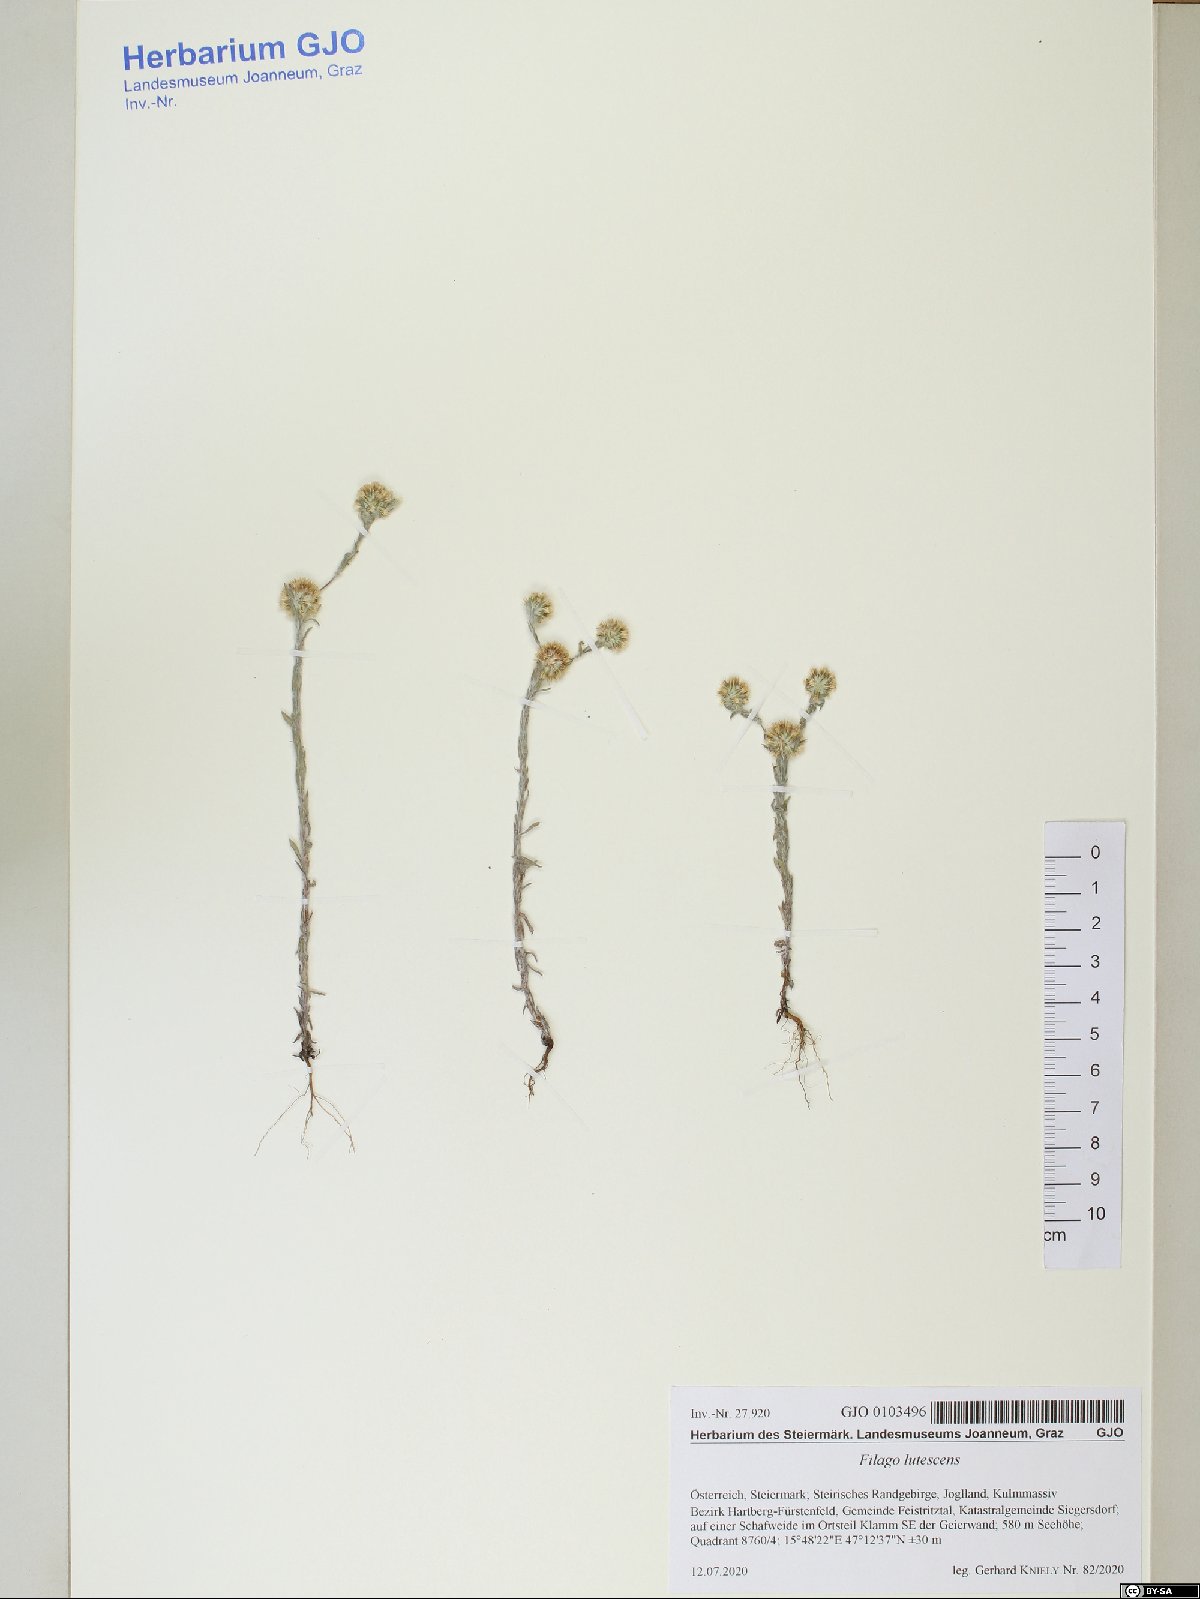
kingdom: Plantae
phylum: Tracheophyta
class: Magnoliopsida
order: Asterales
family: Asteraceae
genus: Filago
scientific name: Filago lutescens
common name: Red-tipped cudweed
